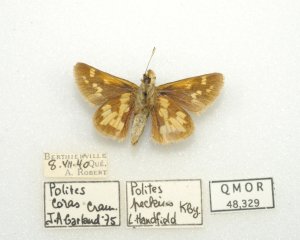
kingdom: Animalia
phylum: Arthropoda
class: Insecta
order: Lepidoptera
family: Hesperiidae
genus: Polites
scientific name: Polites coras
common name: Peck's Skipper
